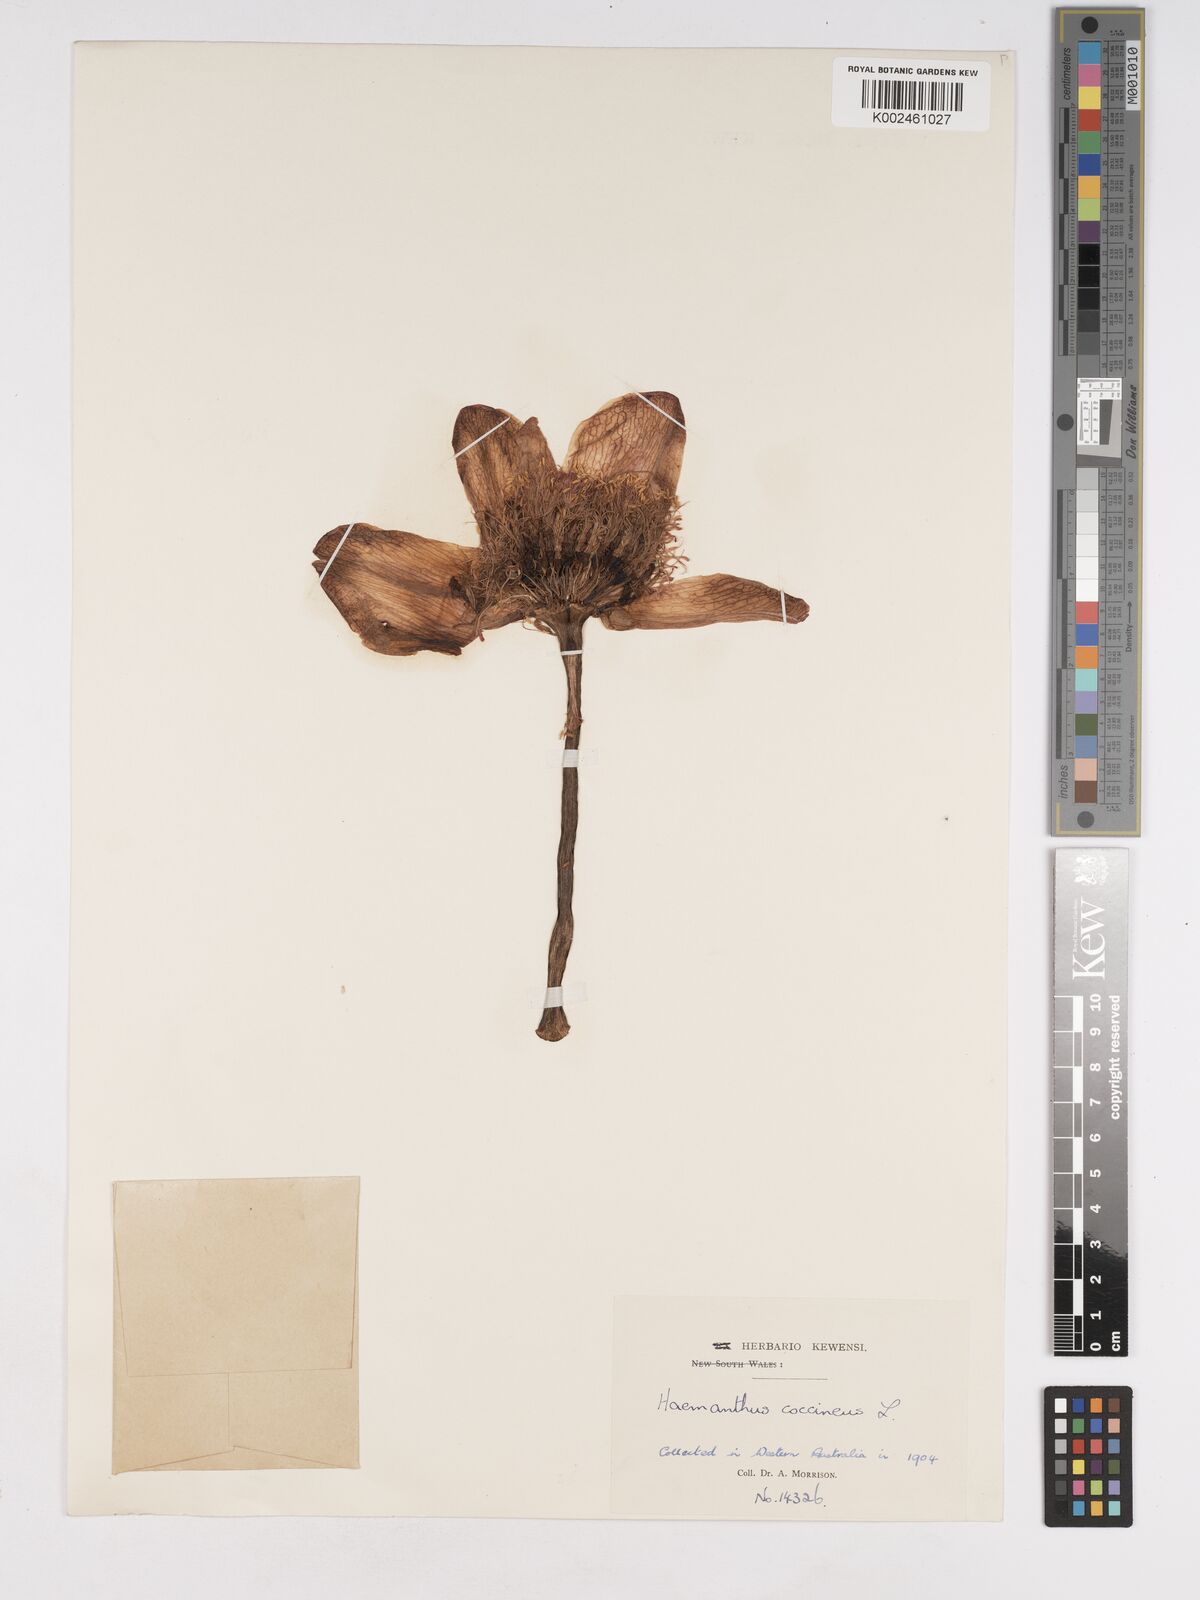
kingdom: Plantae
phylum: Tracheophyta
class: Liliopsida
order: Asparagales
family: Amaryllidaceae
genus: Haemanthus
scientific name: Haemanthus
